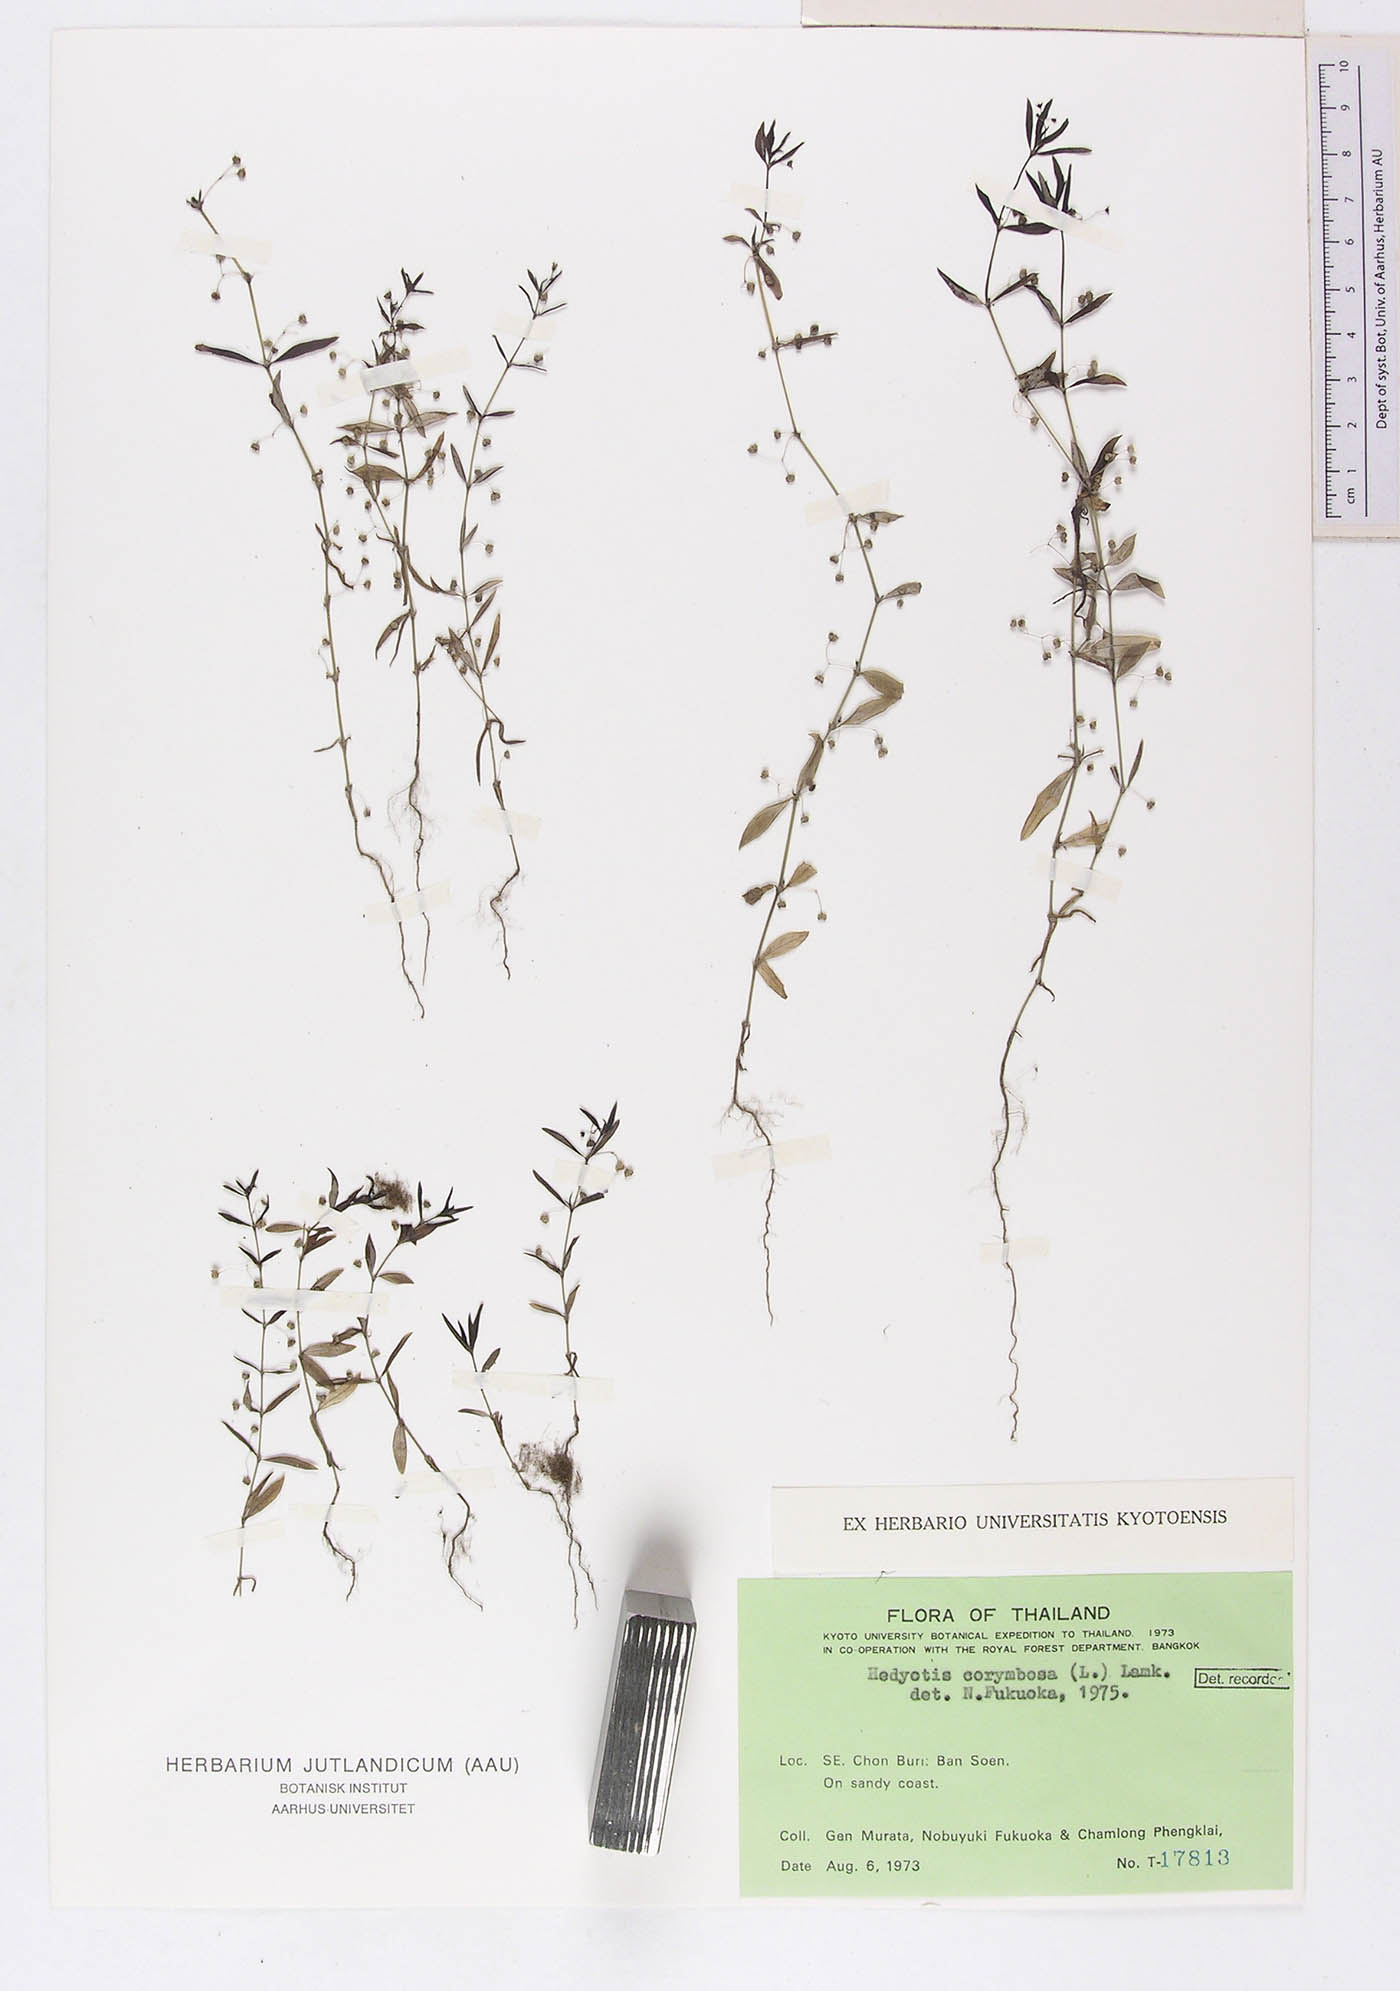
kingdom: Plantae
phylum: Tracheophyta
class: Magnoliopsida
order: Gentianales
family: Rubiaceae
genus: Oldenlandia
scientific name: Oldenlandia corymbosa
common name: Flat-top mille graines
